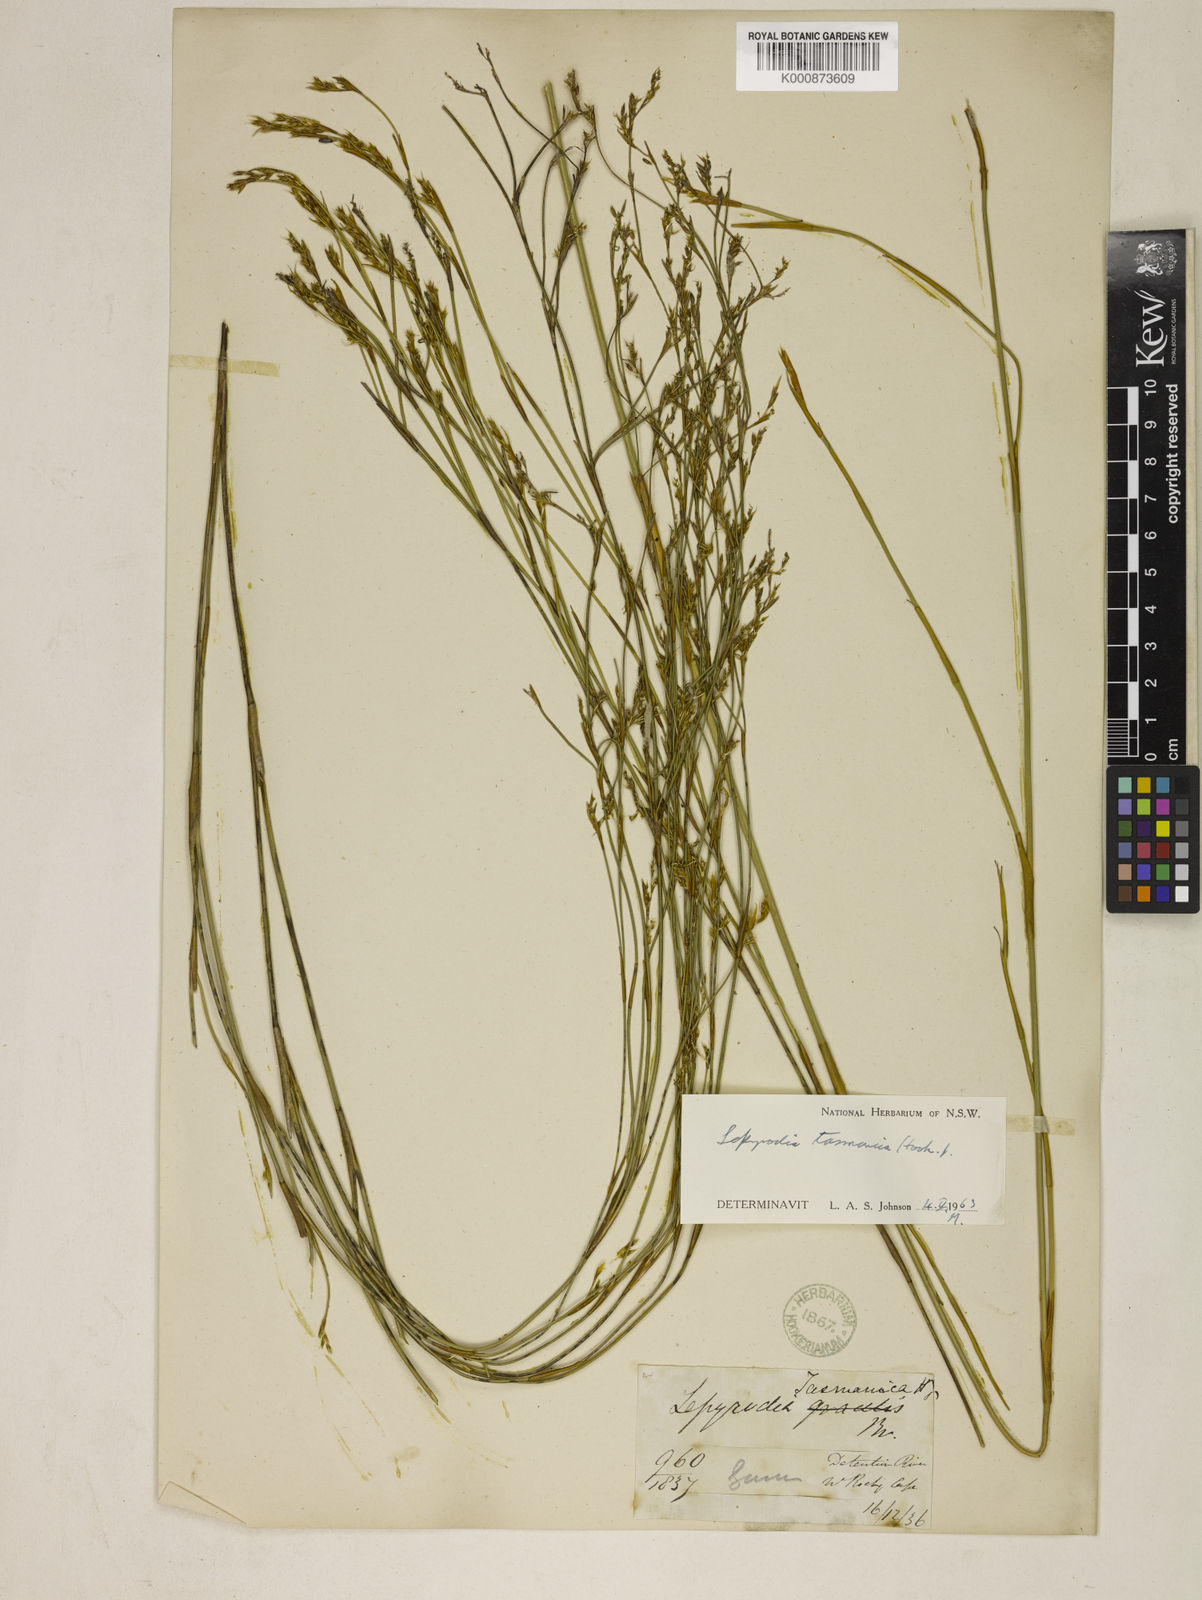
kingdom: Plantae
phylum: Tracheophyta
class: Liliopsida
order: Poales
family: Restionaceae
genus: Sporadanthus
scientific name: Sporadanthus tasmanicus
